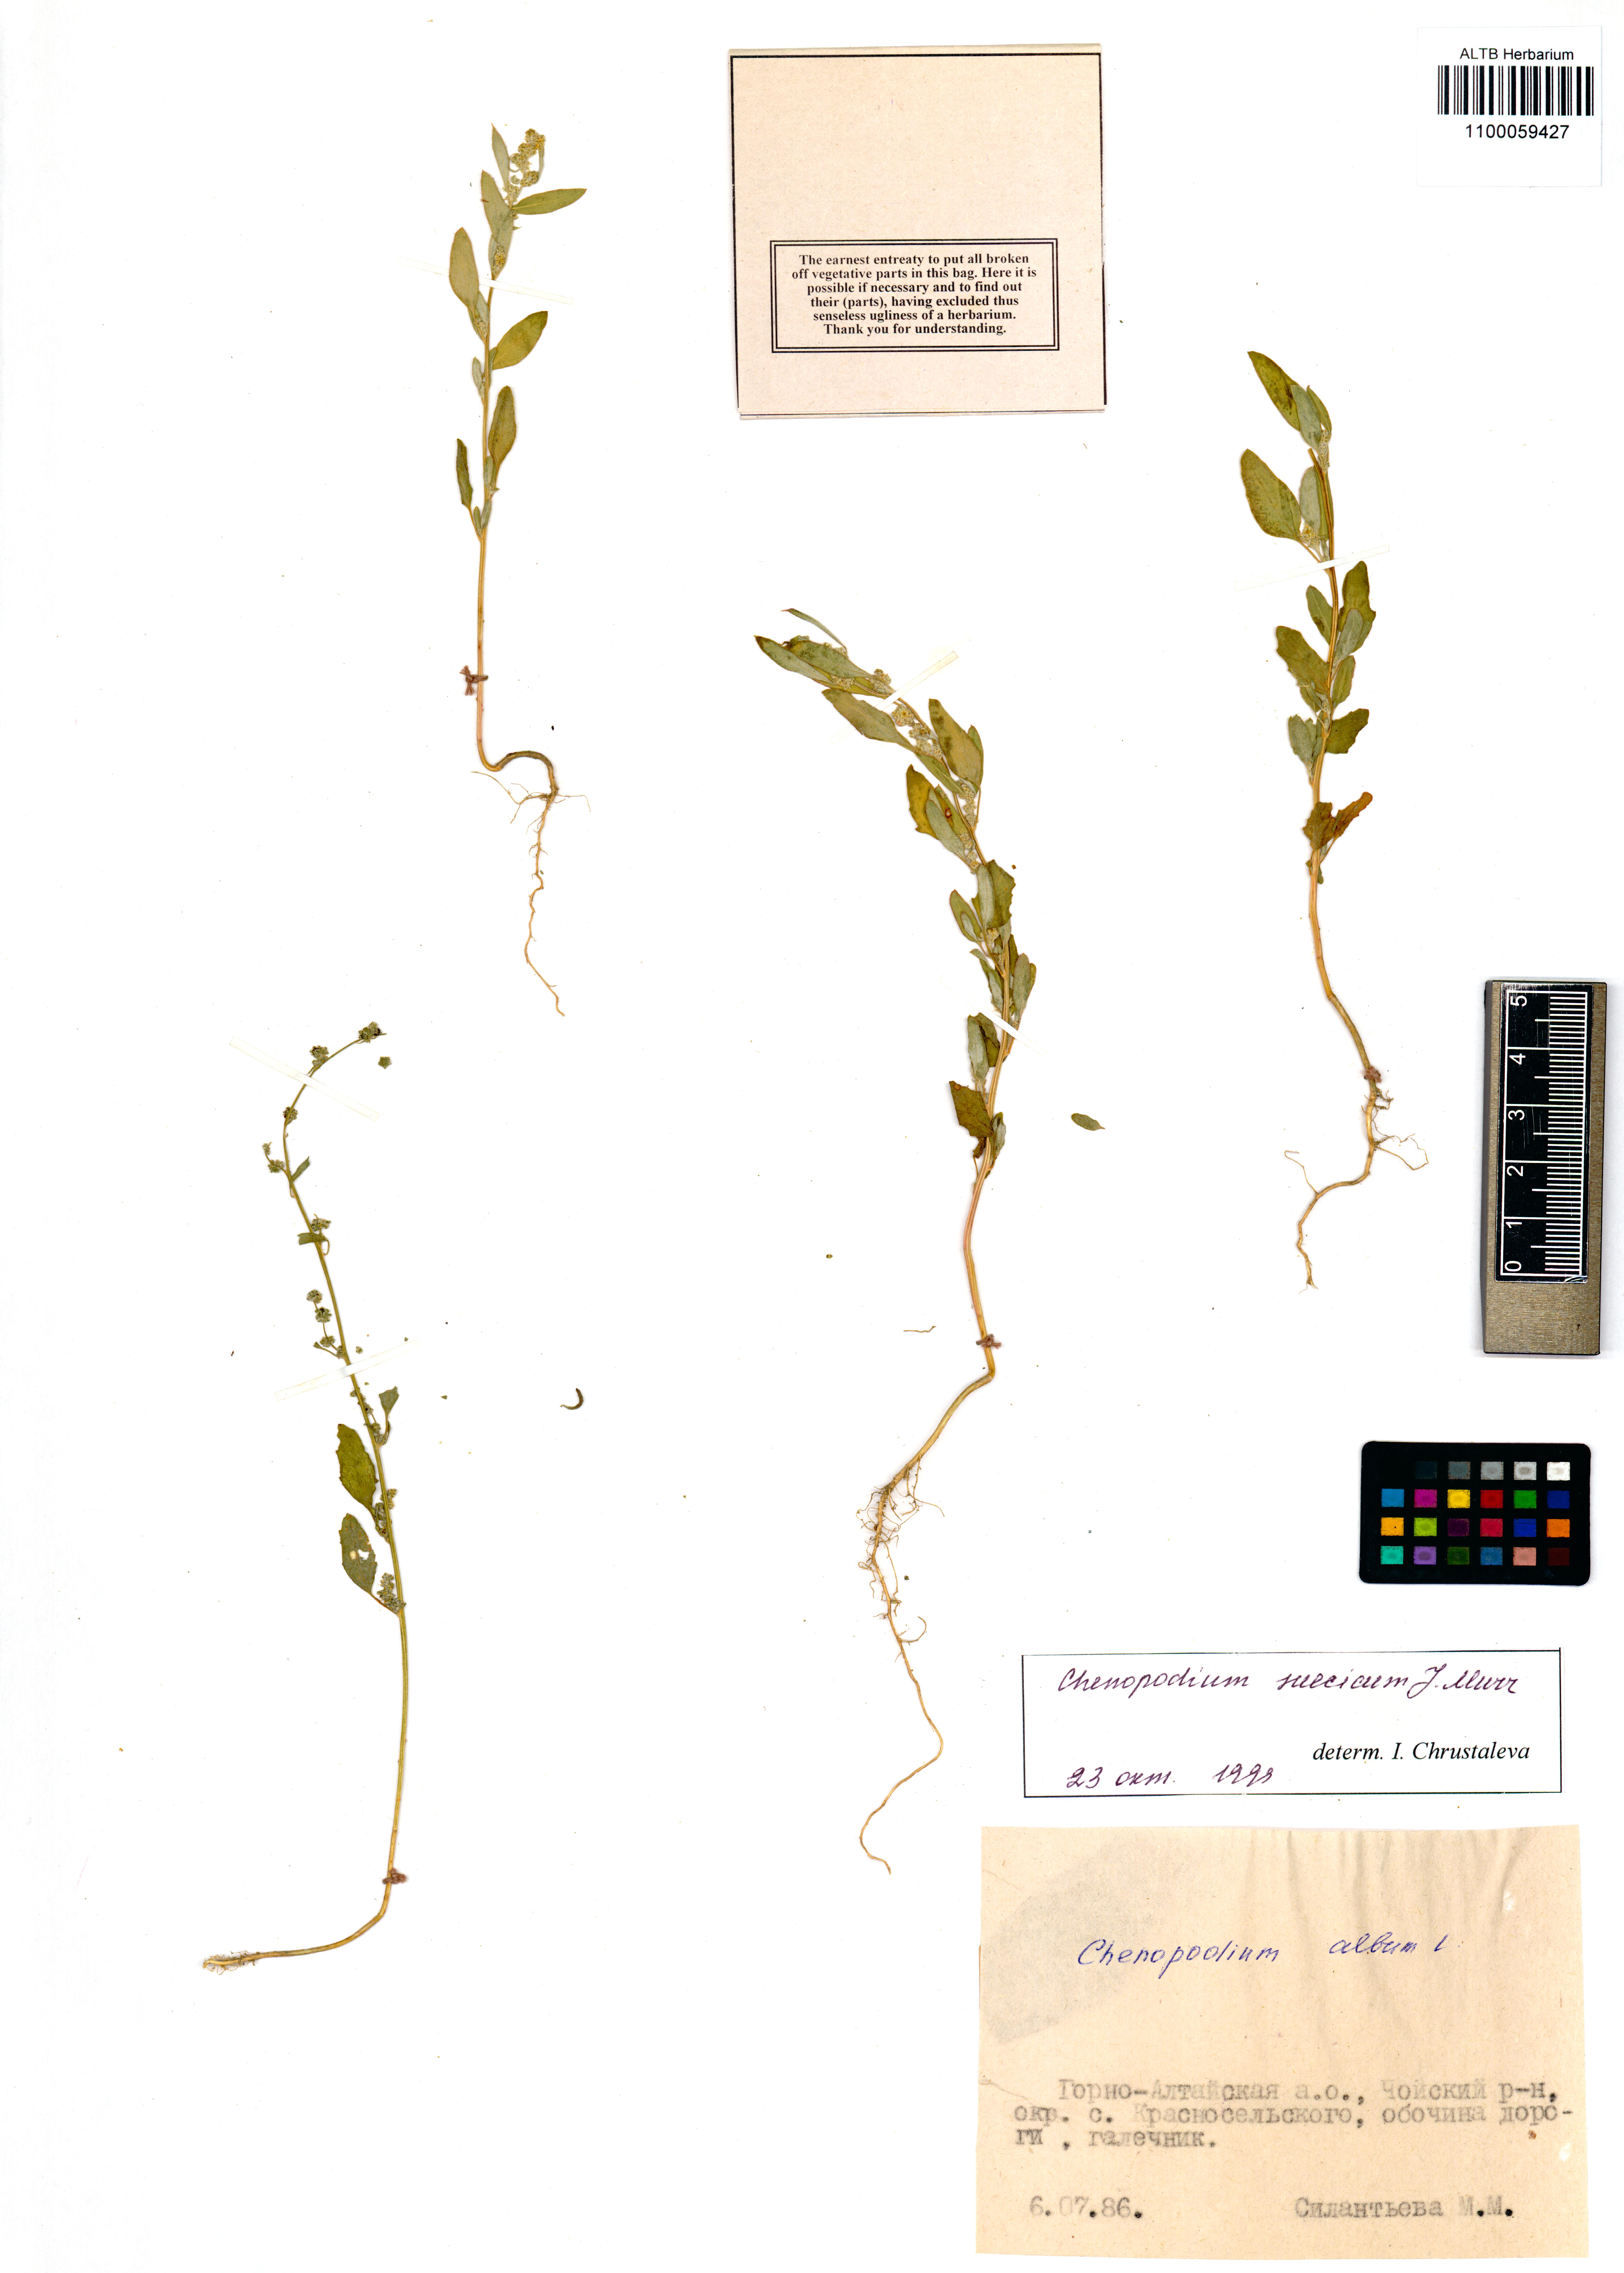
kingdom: Plantae
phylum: Tracheophyta
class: Magnoliopsida
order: Boraginales
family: Boraginaceae
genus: Rochelia
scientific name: Rochelia retorta
